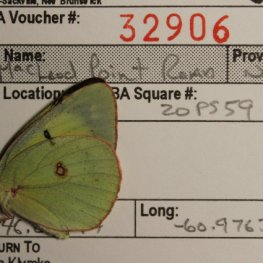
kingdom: Animalia
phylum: Arthropoda
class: Insecta
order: Lepidoptera
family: Pieridae
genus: Colias
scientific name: Colias philodice
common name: Clouded Sulphur
